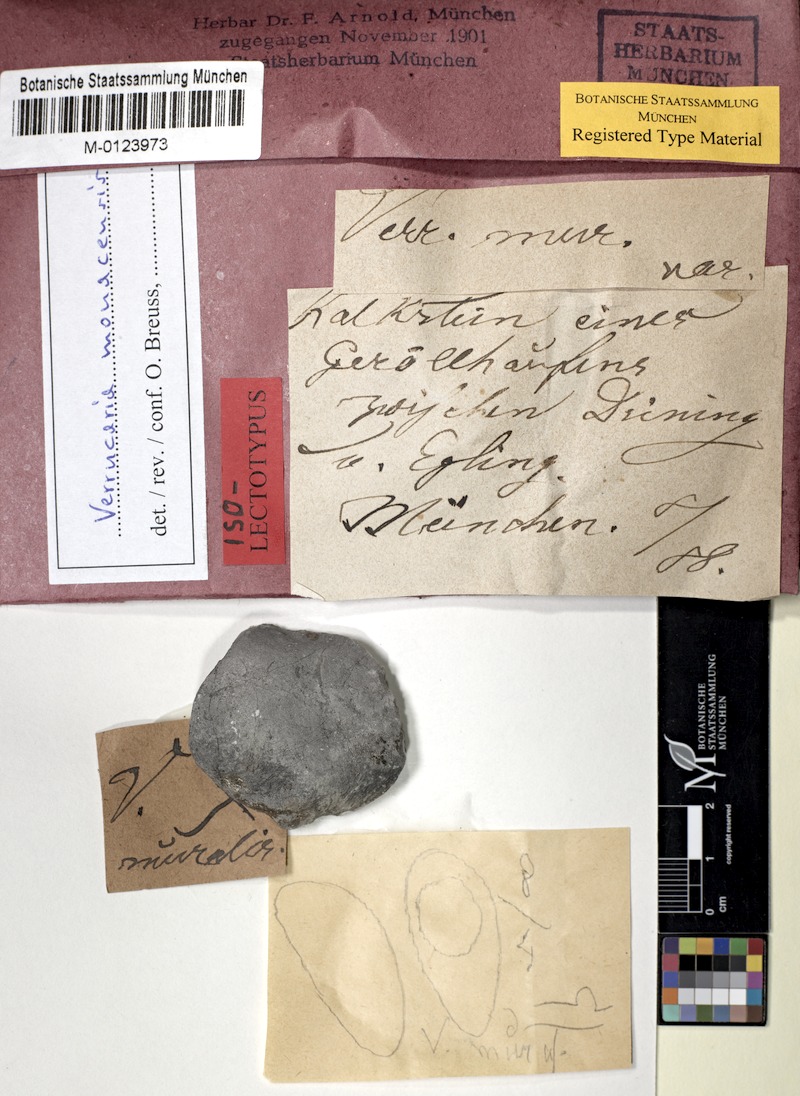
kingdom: Fungi
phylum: Ascomycota
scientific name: Ascomycota
